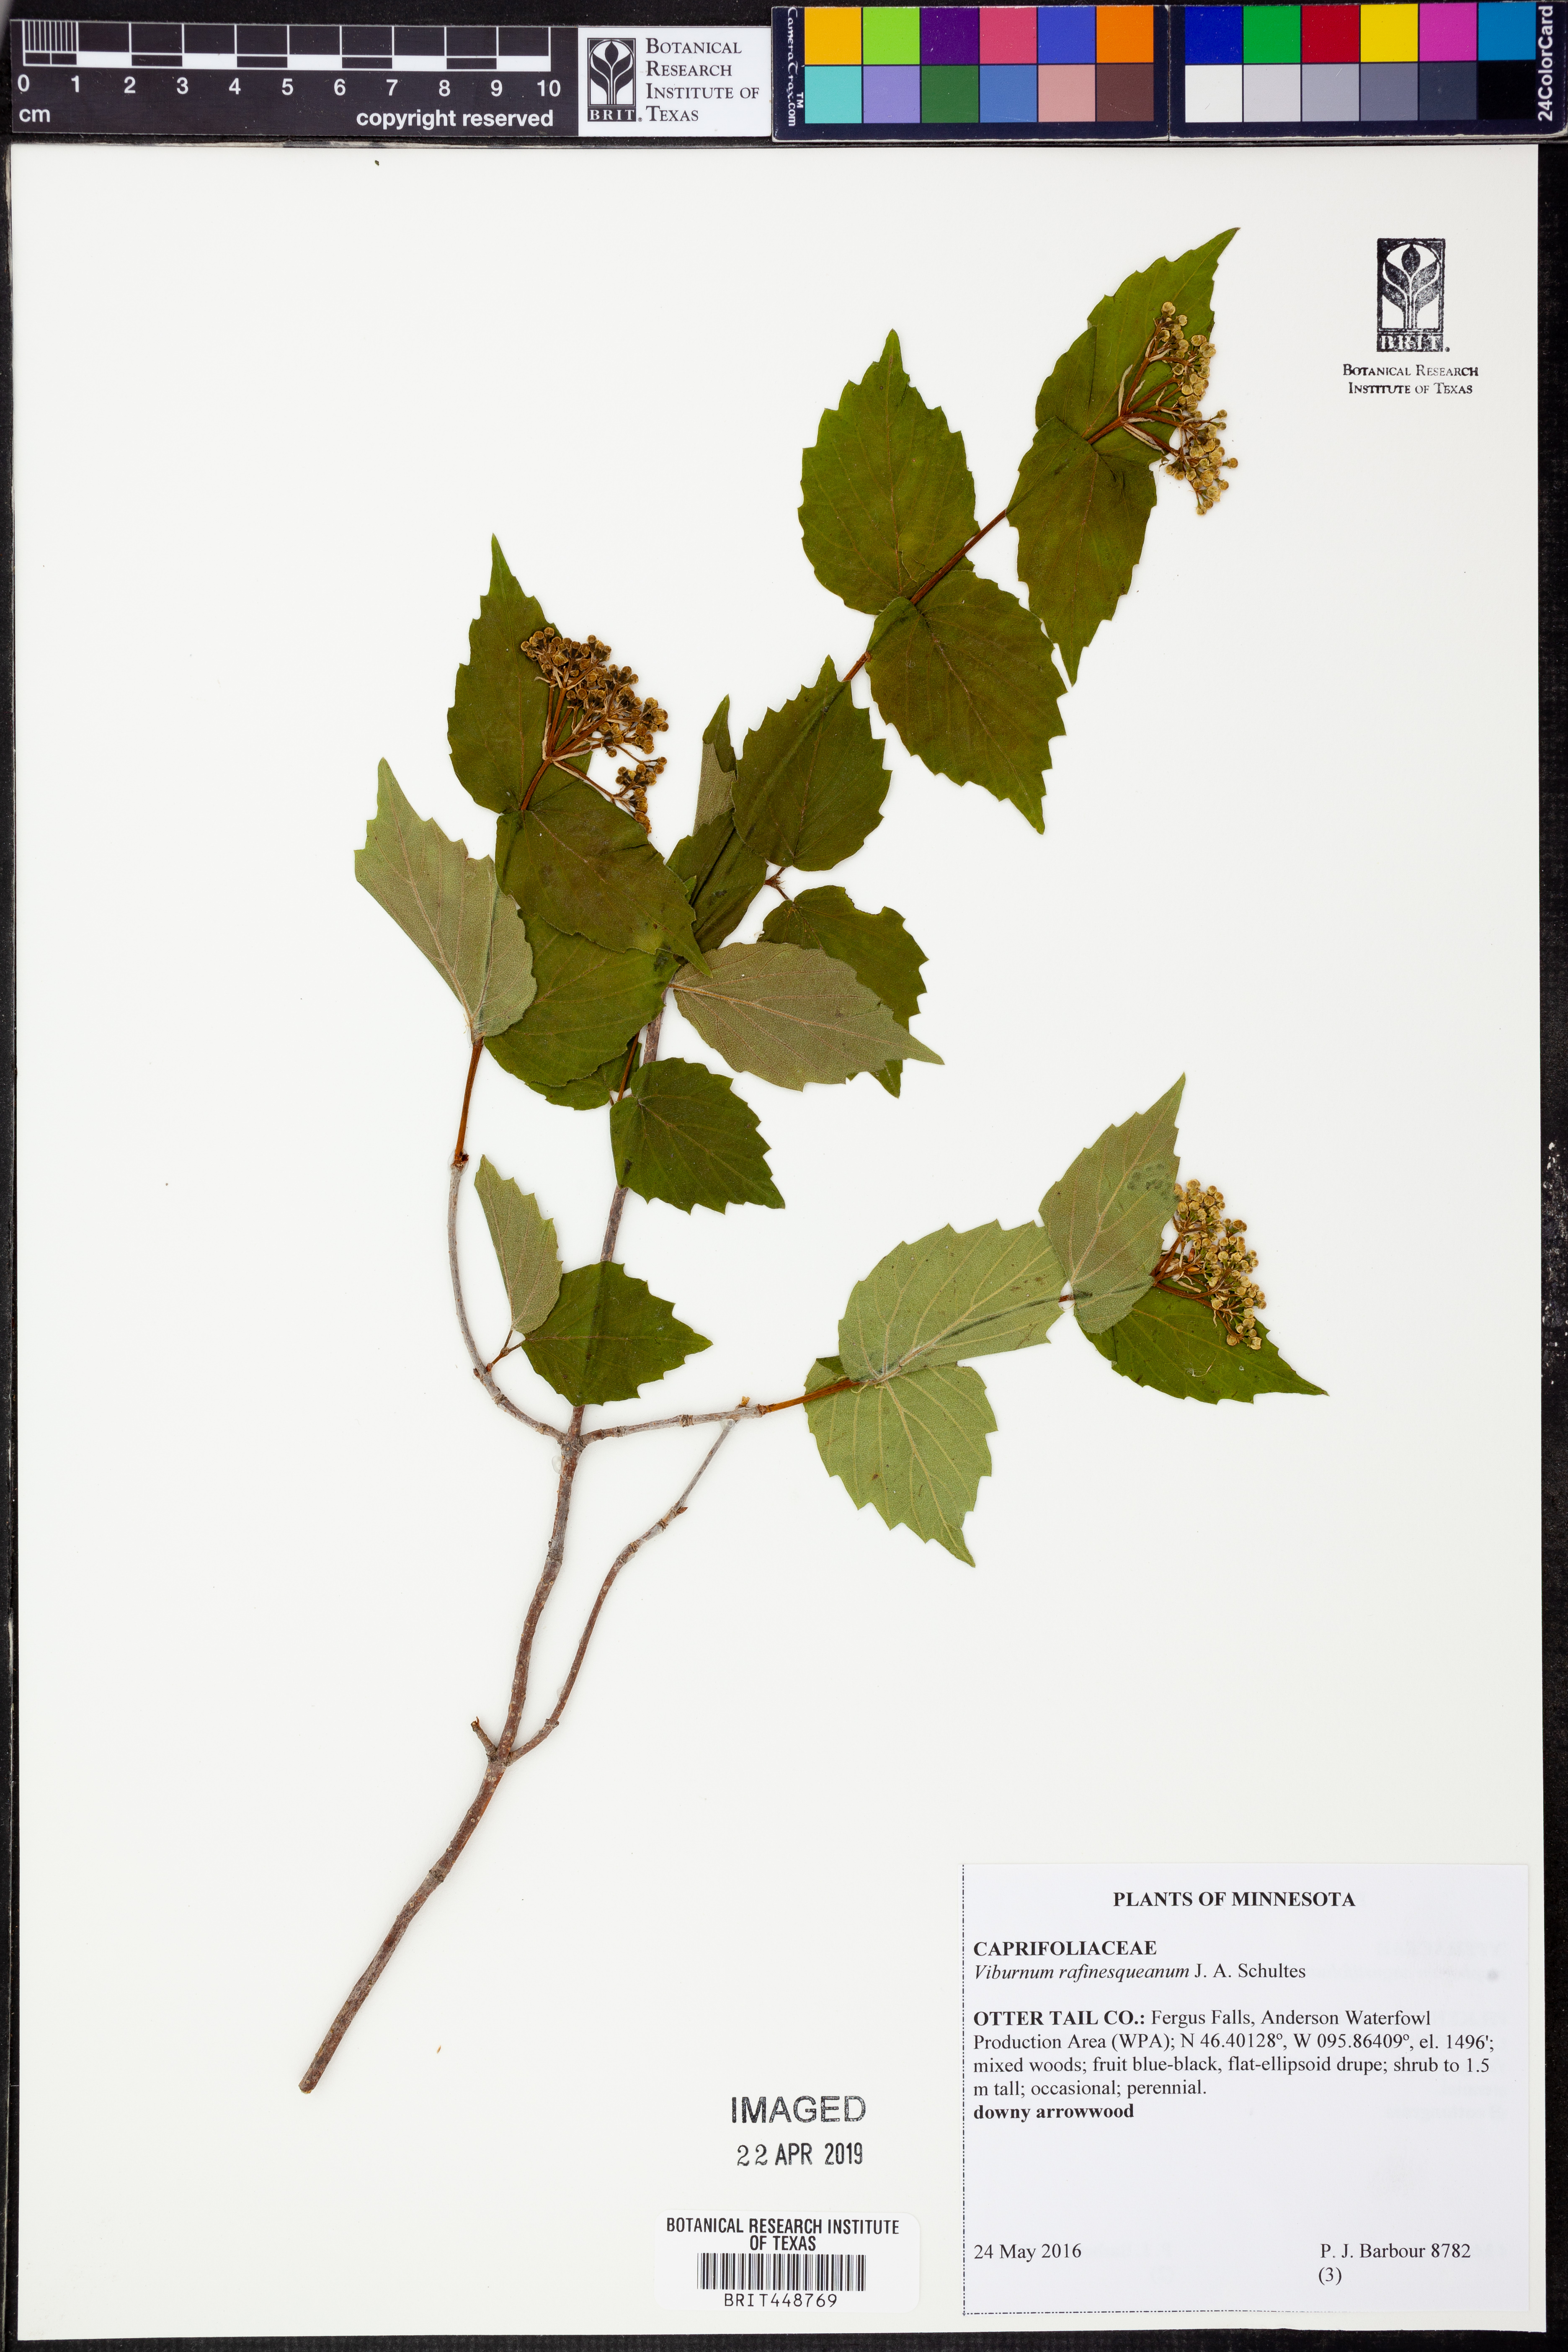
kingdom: Plantae
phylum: Tracheophyta
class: Magnoliopsida
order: Dipsacales
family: Viburnaceae
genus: Viburnum
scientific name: Viburnum rafinesqueanum
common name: Downy arrow-wood
